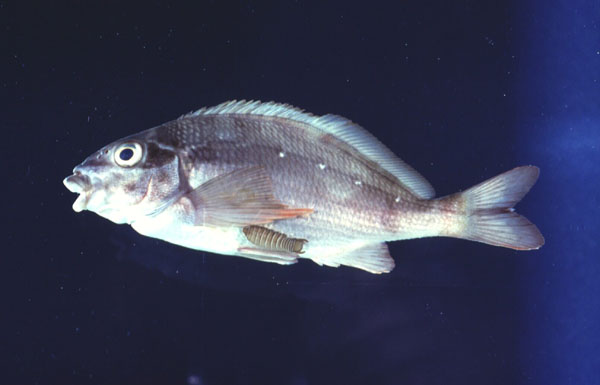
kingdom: Animalia
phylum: Chordata
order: Perciformes
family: Cheilodactylidae
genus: Chirodactylus
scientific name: Chirodactylus brachydactylus
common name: Butterfish
